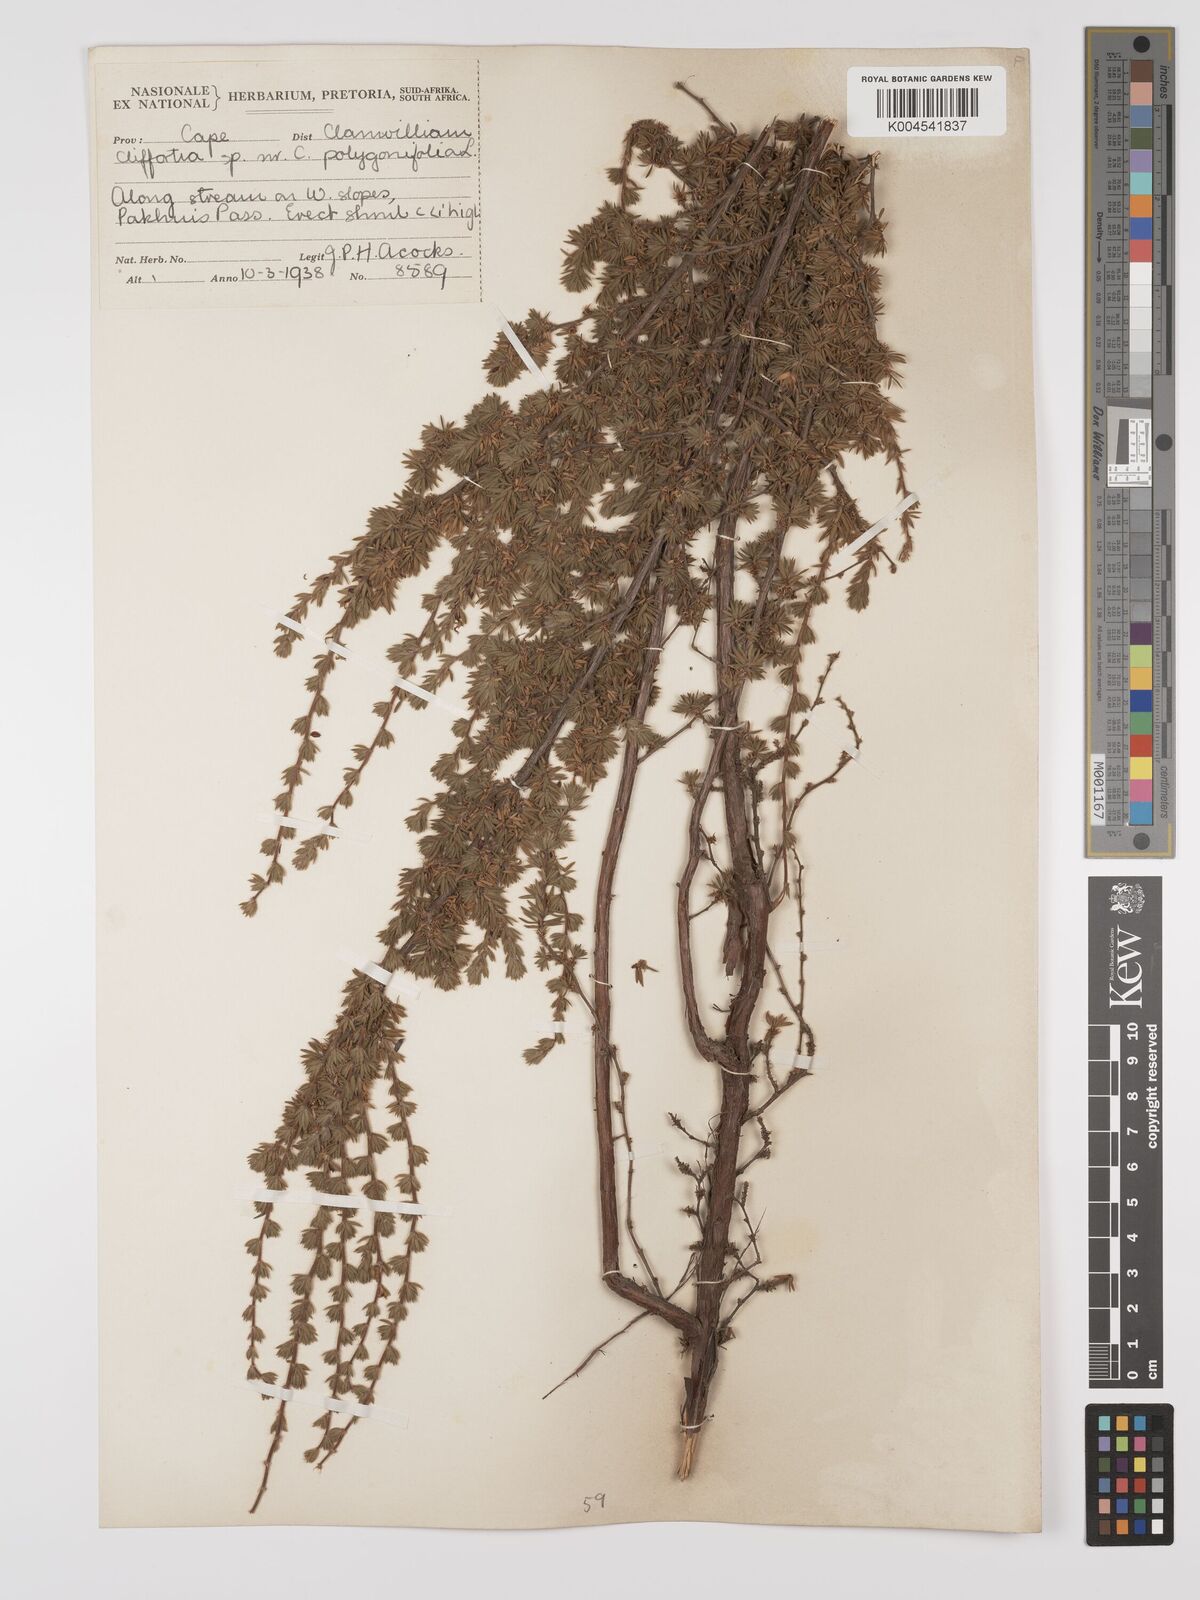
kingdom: Plantae
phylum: Tracheophyta
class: Magnoliopsida
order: Rosales
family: Rosaceae
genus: Cliffortia
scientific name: Cliffortia polygonifolia
